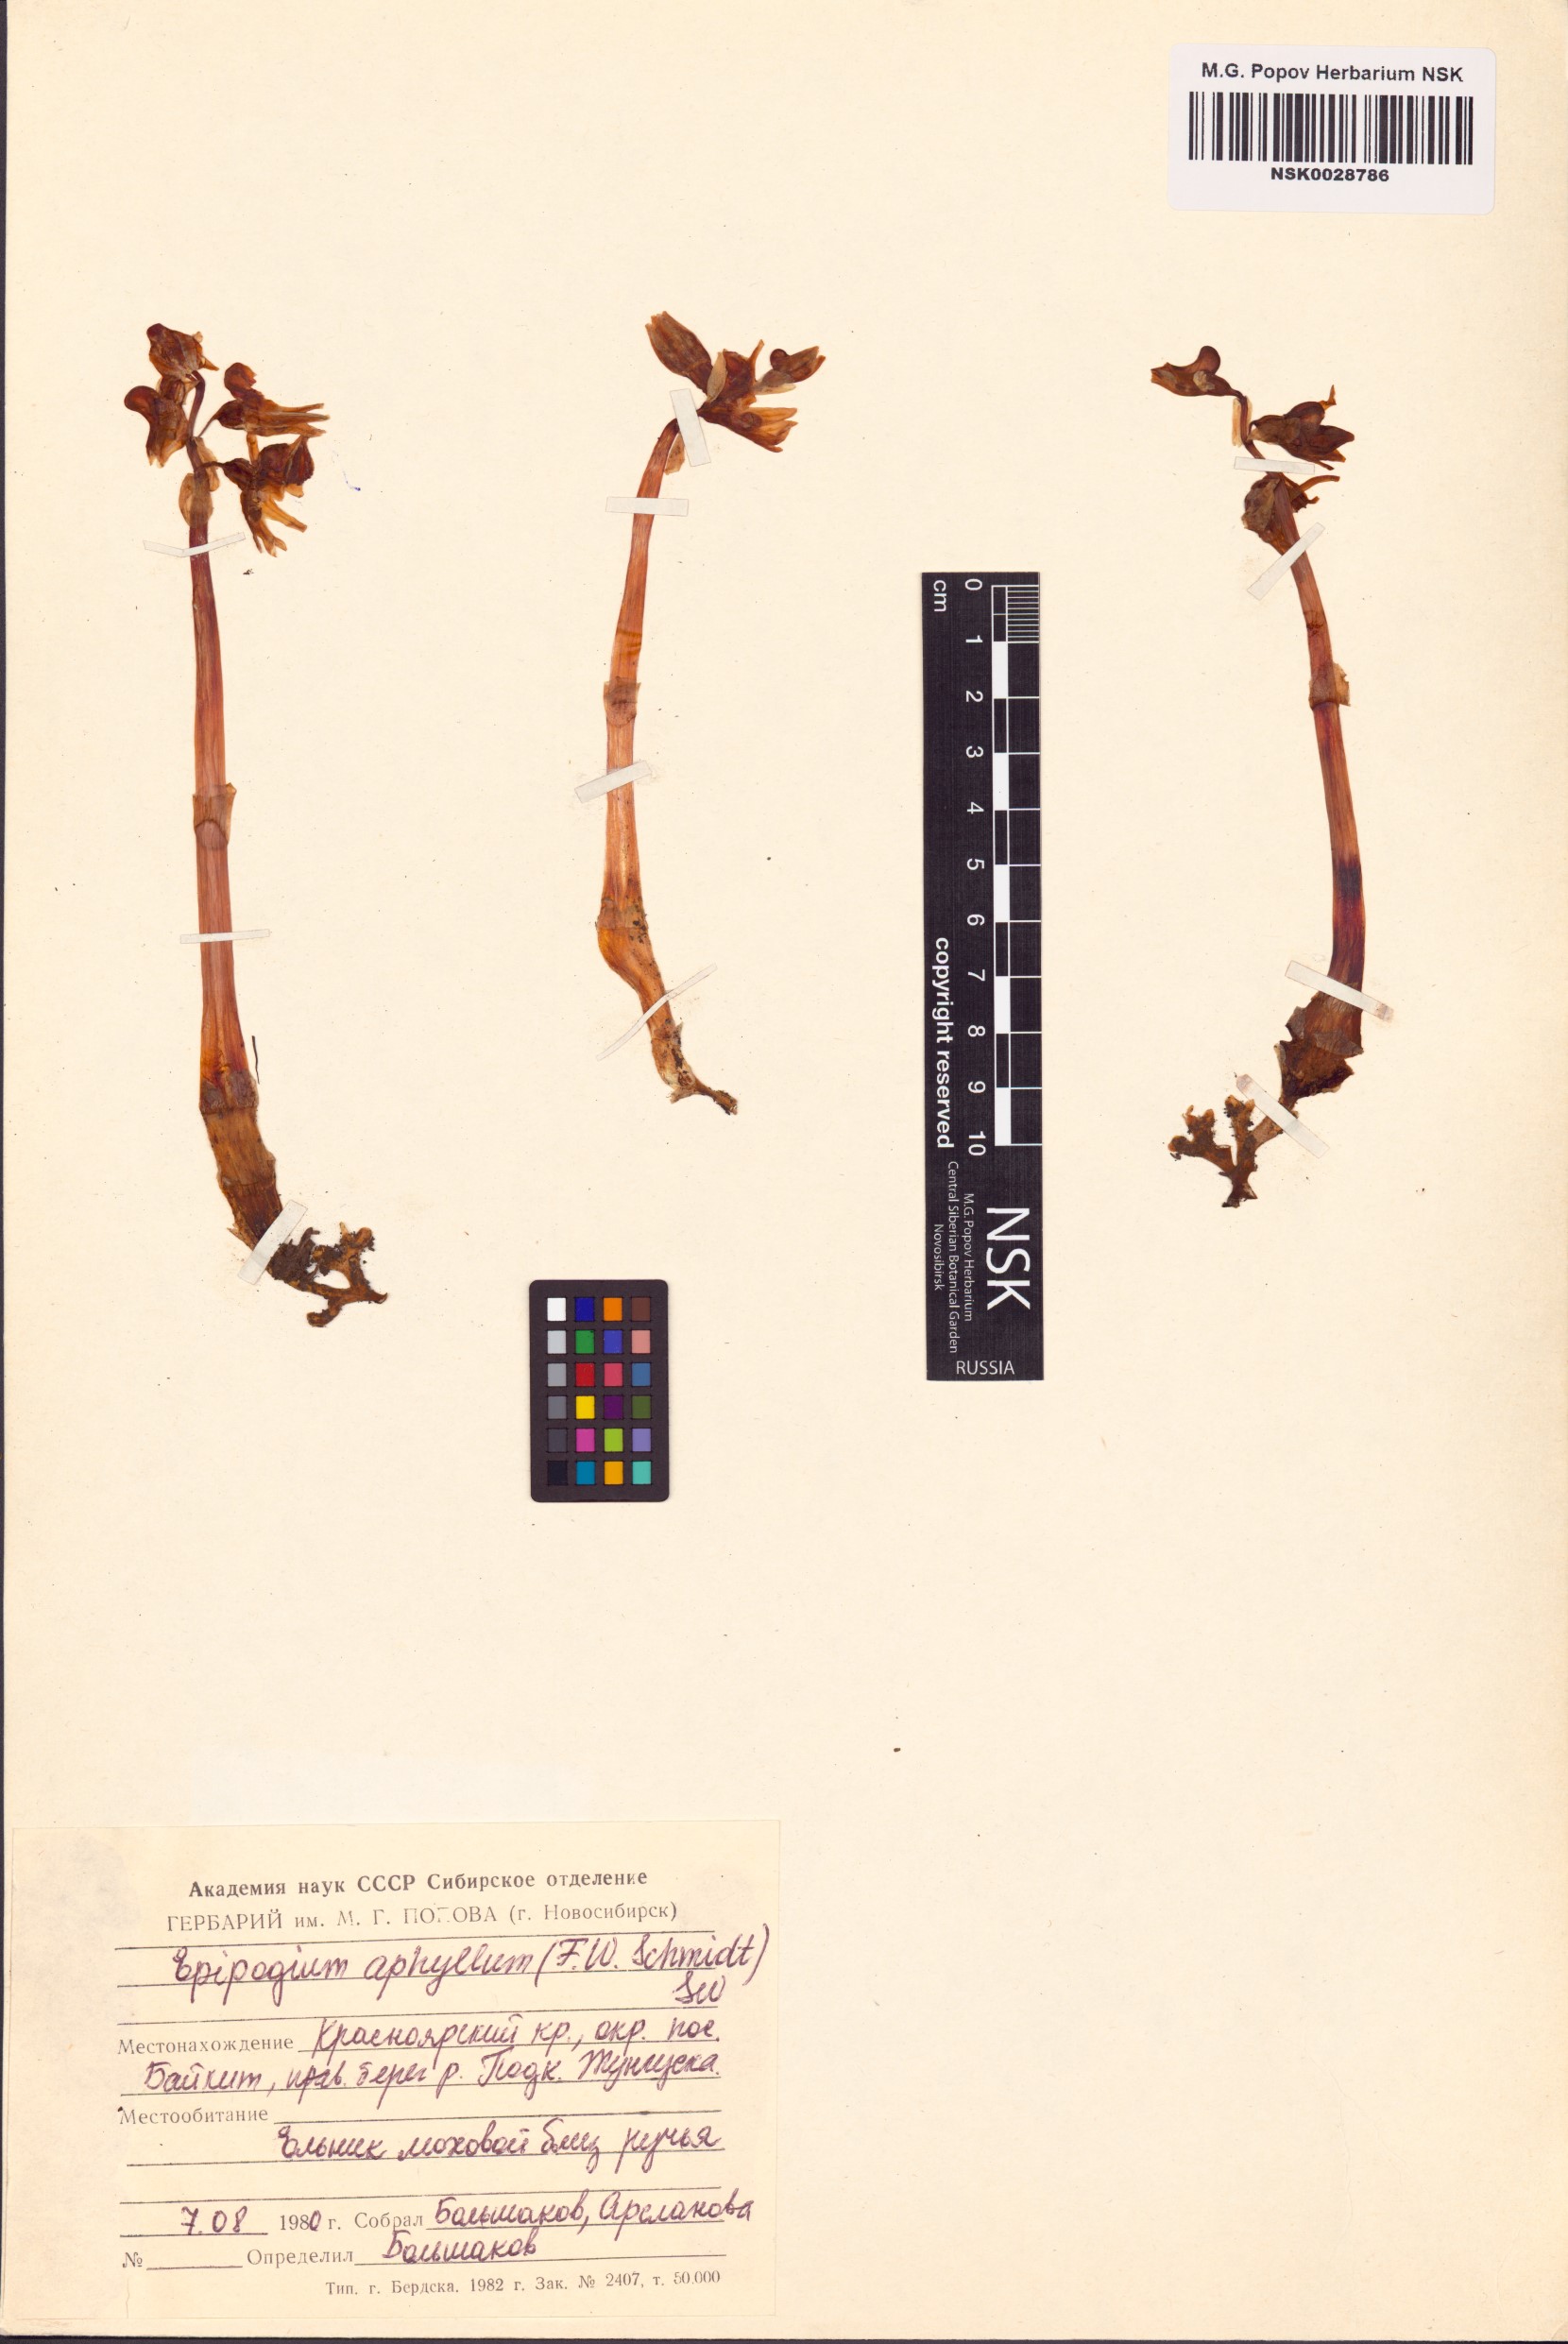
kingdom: Plantae
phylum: Tracheophyta
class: Liliopsida
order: Asparagales
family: Orchidaceae
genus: Epipogium
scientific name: Epipogium aphyllum
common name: Ghost orchid
